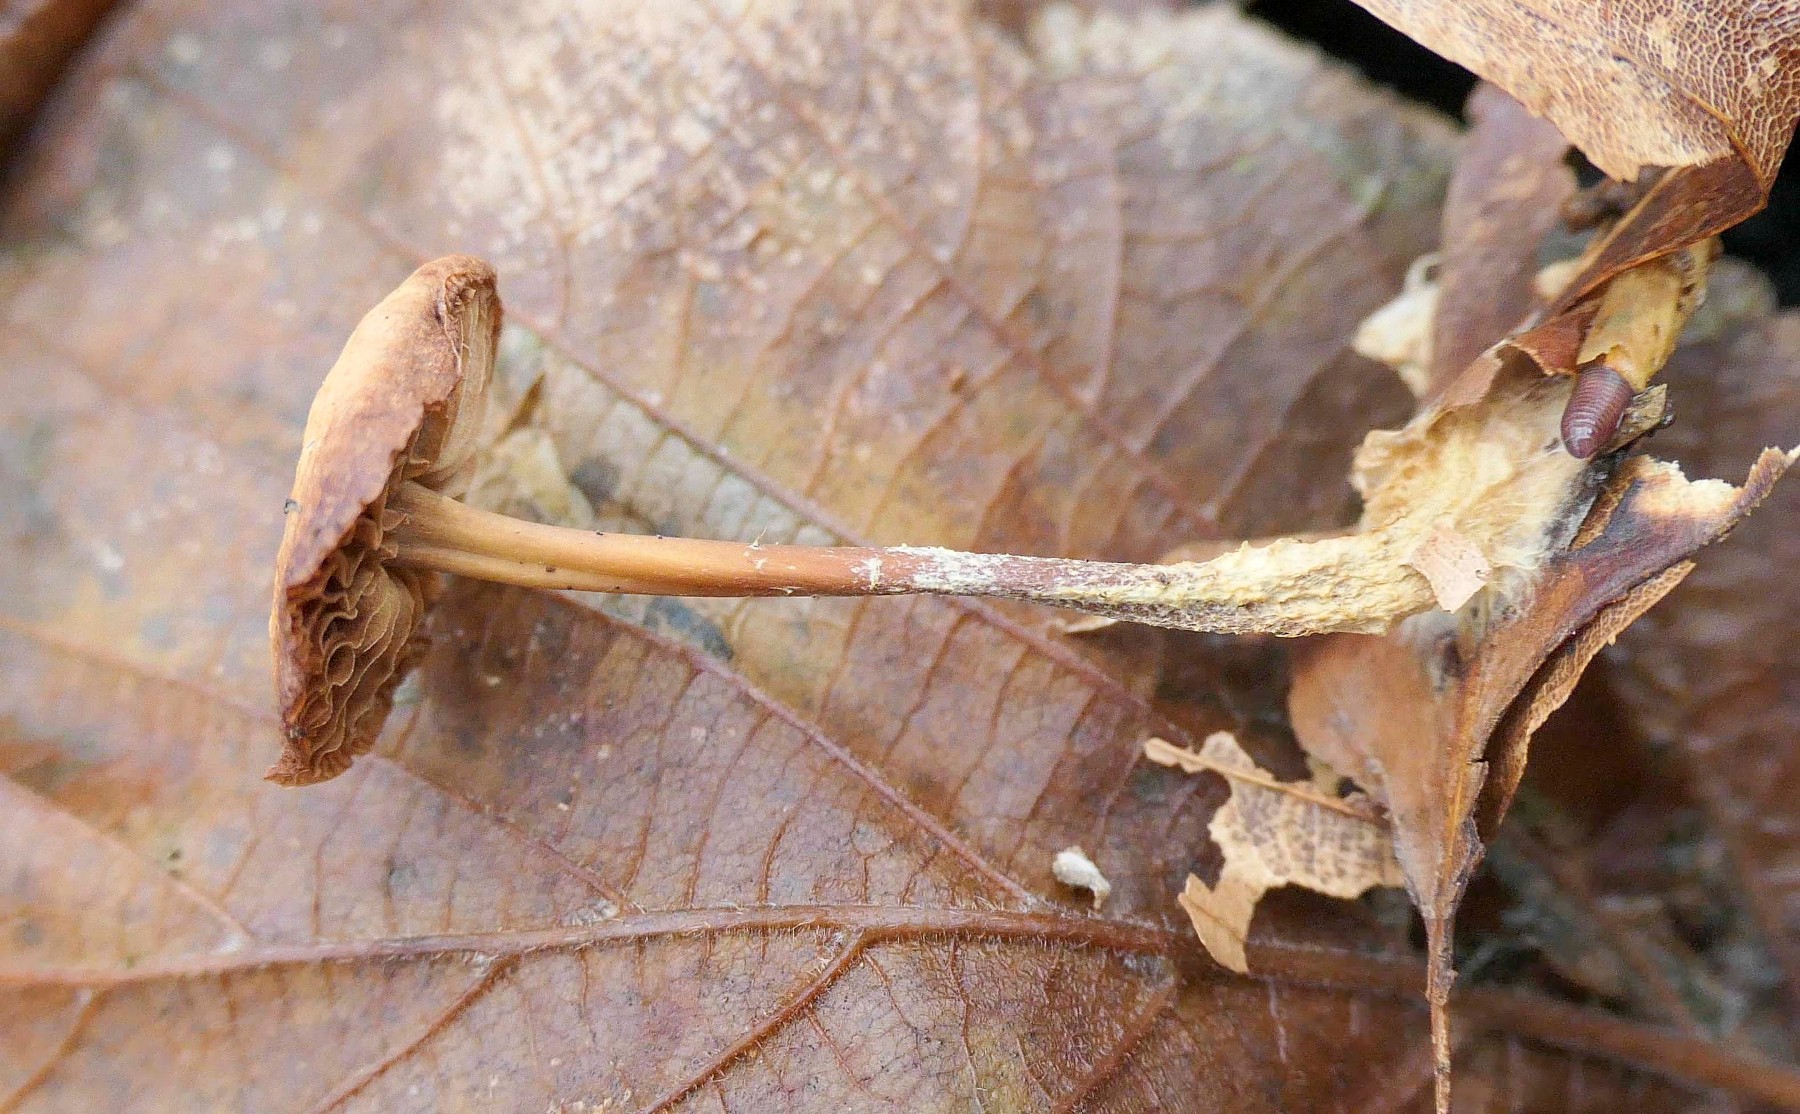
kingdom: Fungi
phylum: Basidiomycota
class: Agaricomycetes
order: Agaricales
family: Omphalotaceae
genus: Gymnopus
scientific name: Gymnopus fagiphilus
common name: bøgeløv-fladhat
